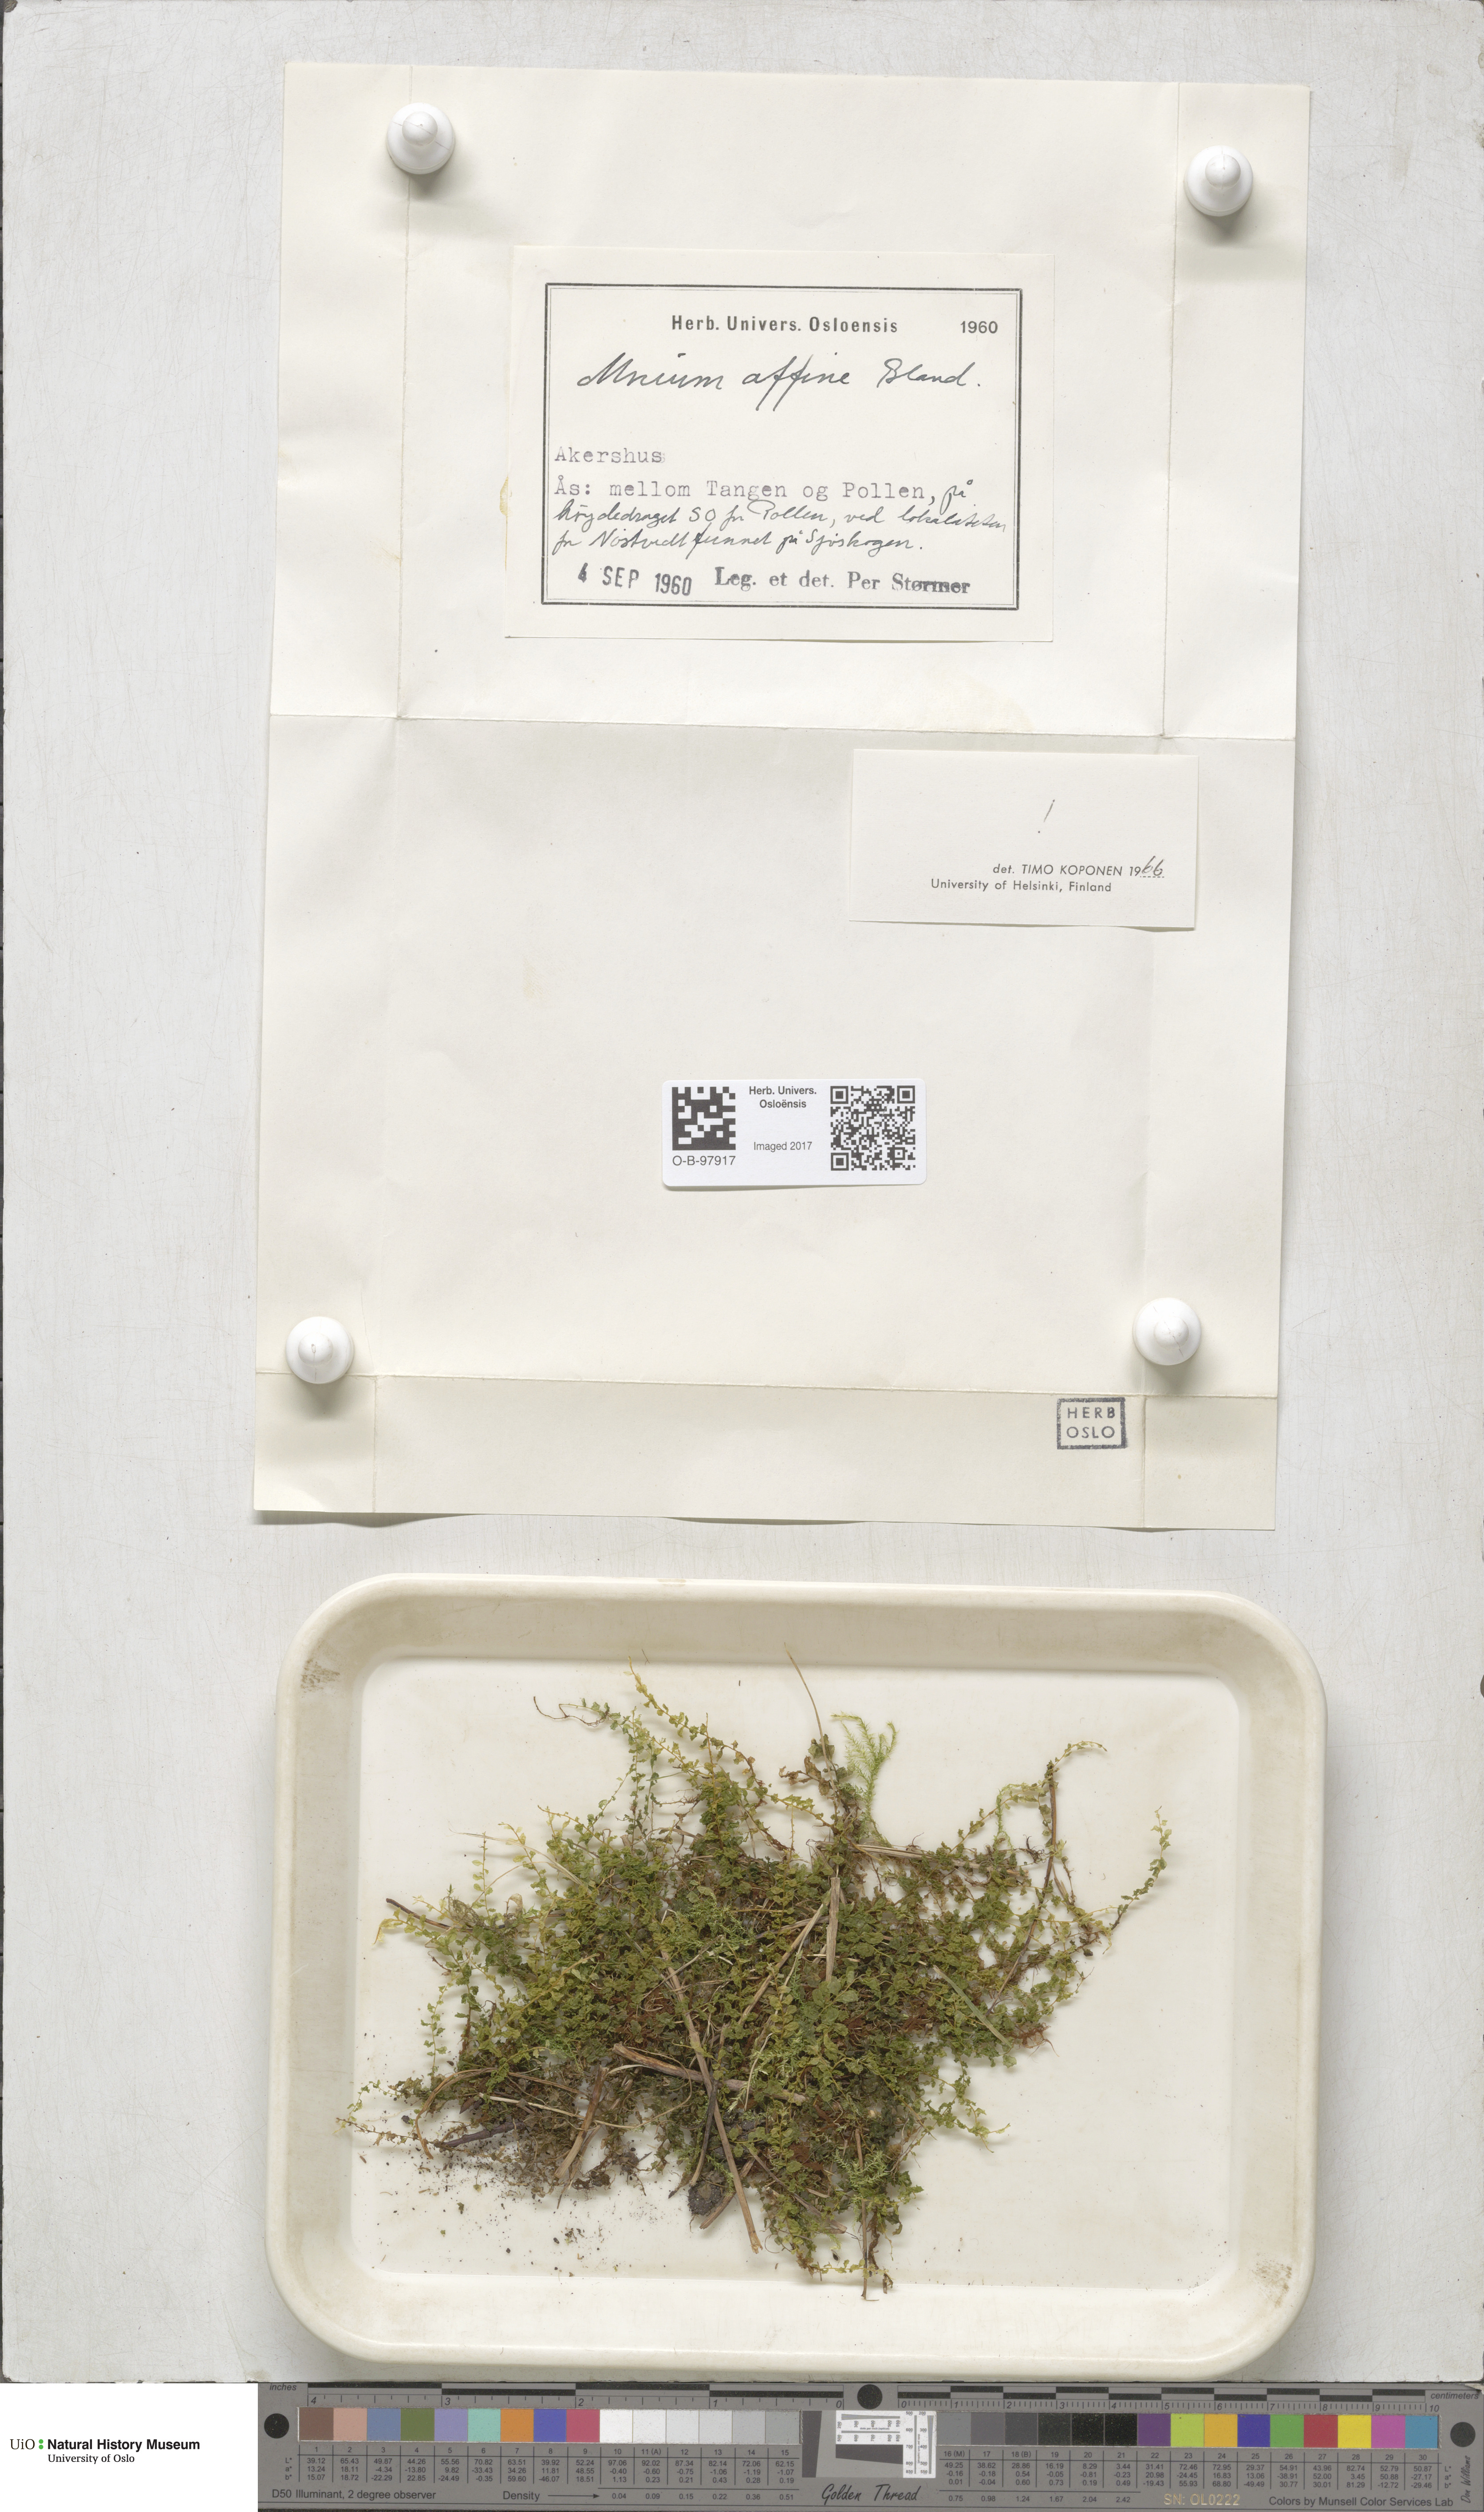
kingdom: Plantae
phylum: Bryophyta
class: Bryopsida
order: Bryales
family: Mniaceae
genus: Plagiomnium
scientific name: Plagiomnium affine
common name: Many-fruited thyme-moss
